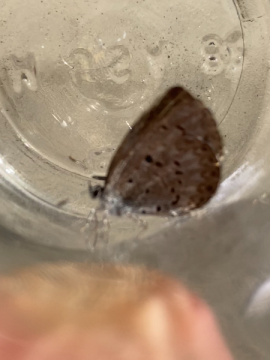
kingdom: Animalia
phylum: Arthropoda
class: Insecta
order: Lepidoptera
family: Lycaenidae
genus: Celastrina
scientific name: Celastrina lucia
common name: Northern Spring Azure
